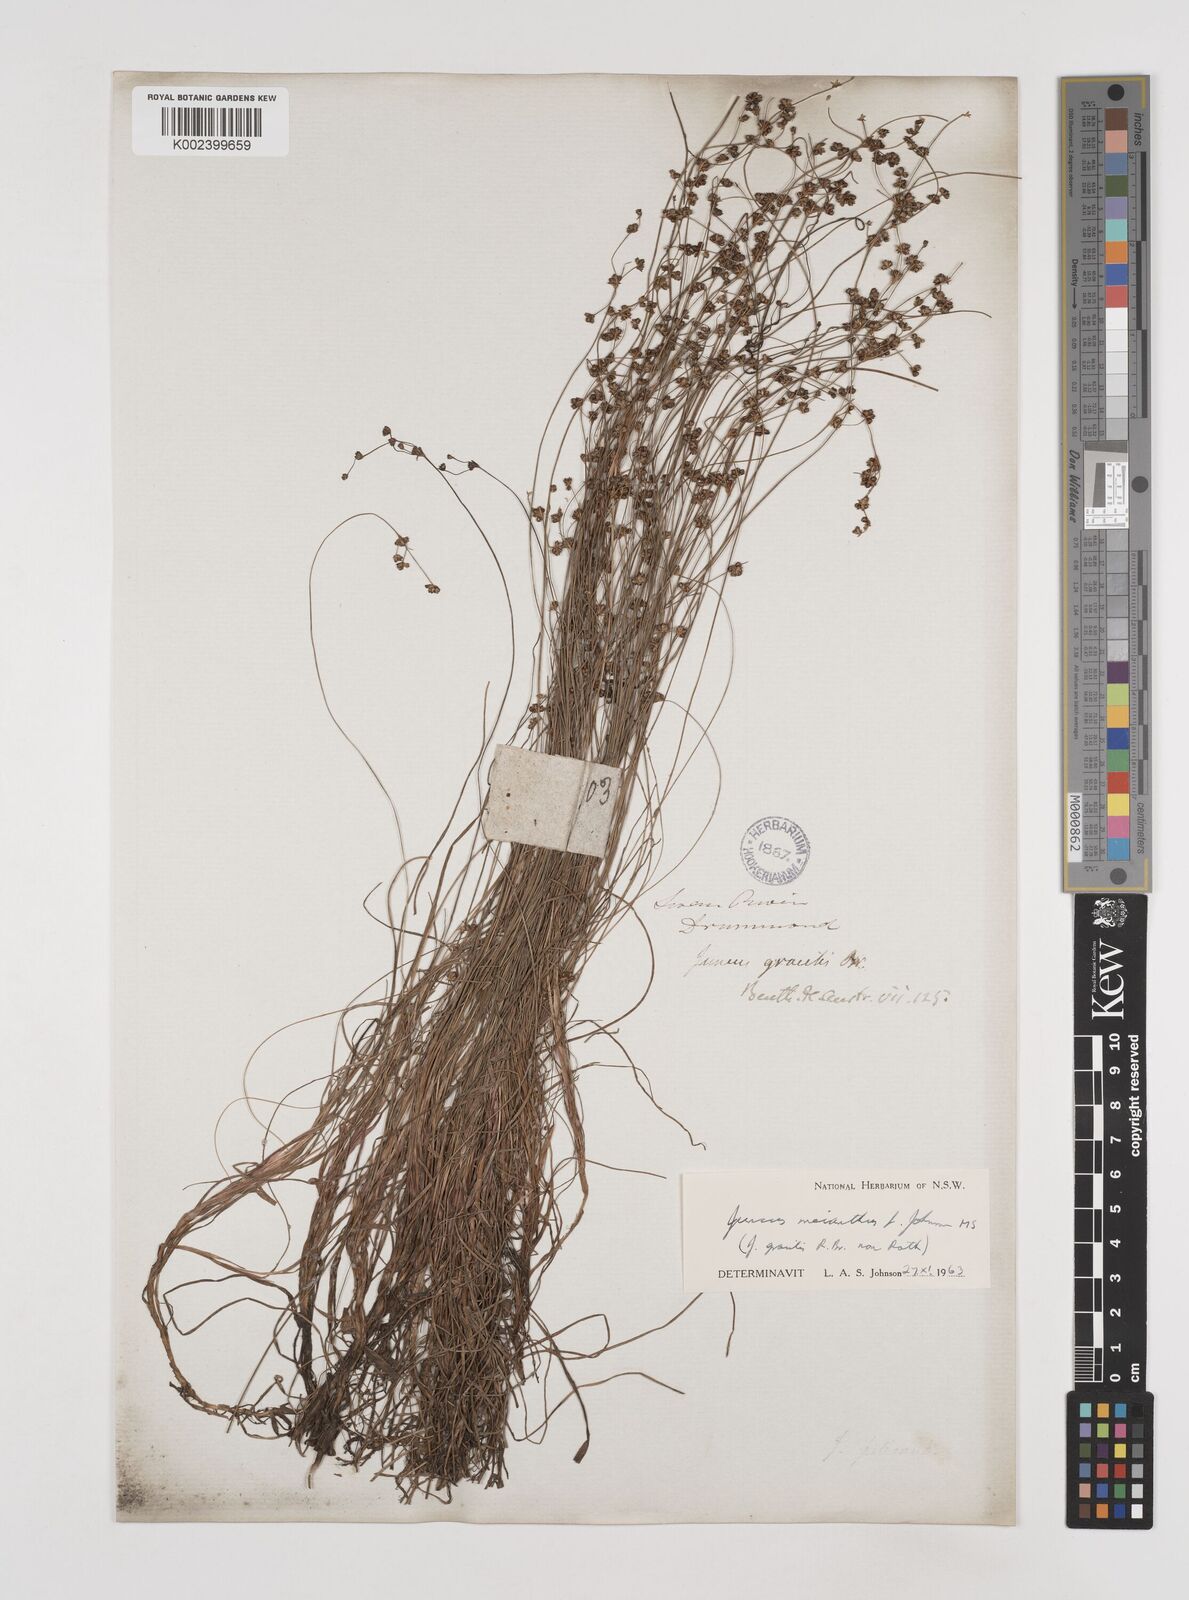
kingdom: Plantae
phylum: Tracheophyta
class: Liliopsida
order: Poales
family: Juncaceae
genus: Juncus
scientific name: Juncus meianthus
